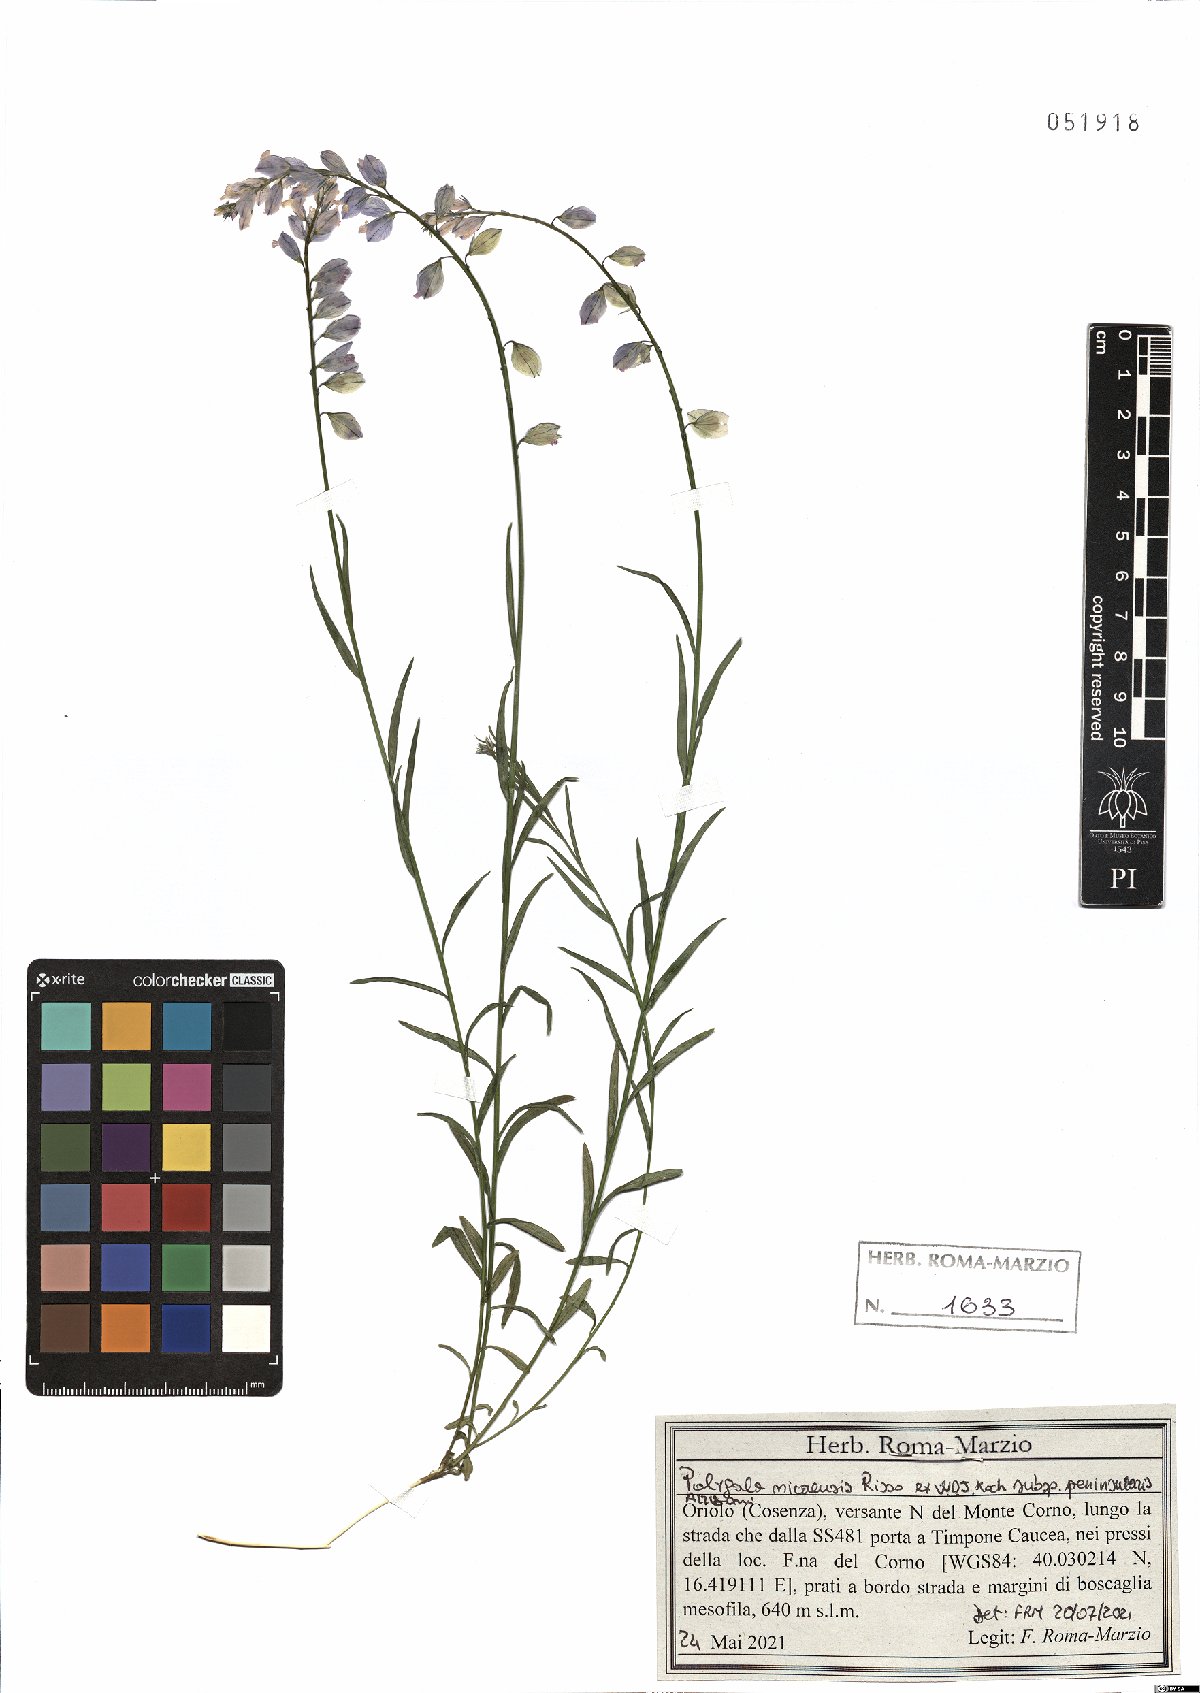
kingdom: Plantae
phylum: Tracheophyta
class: Magnoliopsida
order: Fabales
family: Polygalaceae
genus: Polygala
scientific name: Polygala nicaeensis
